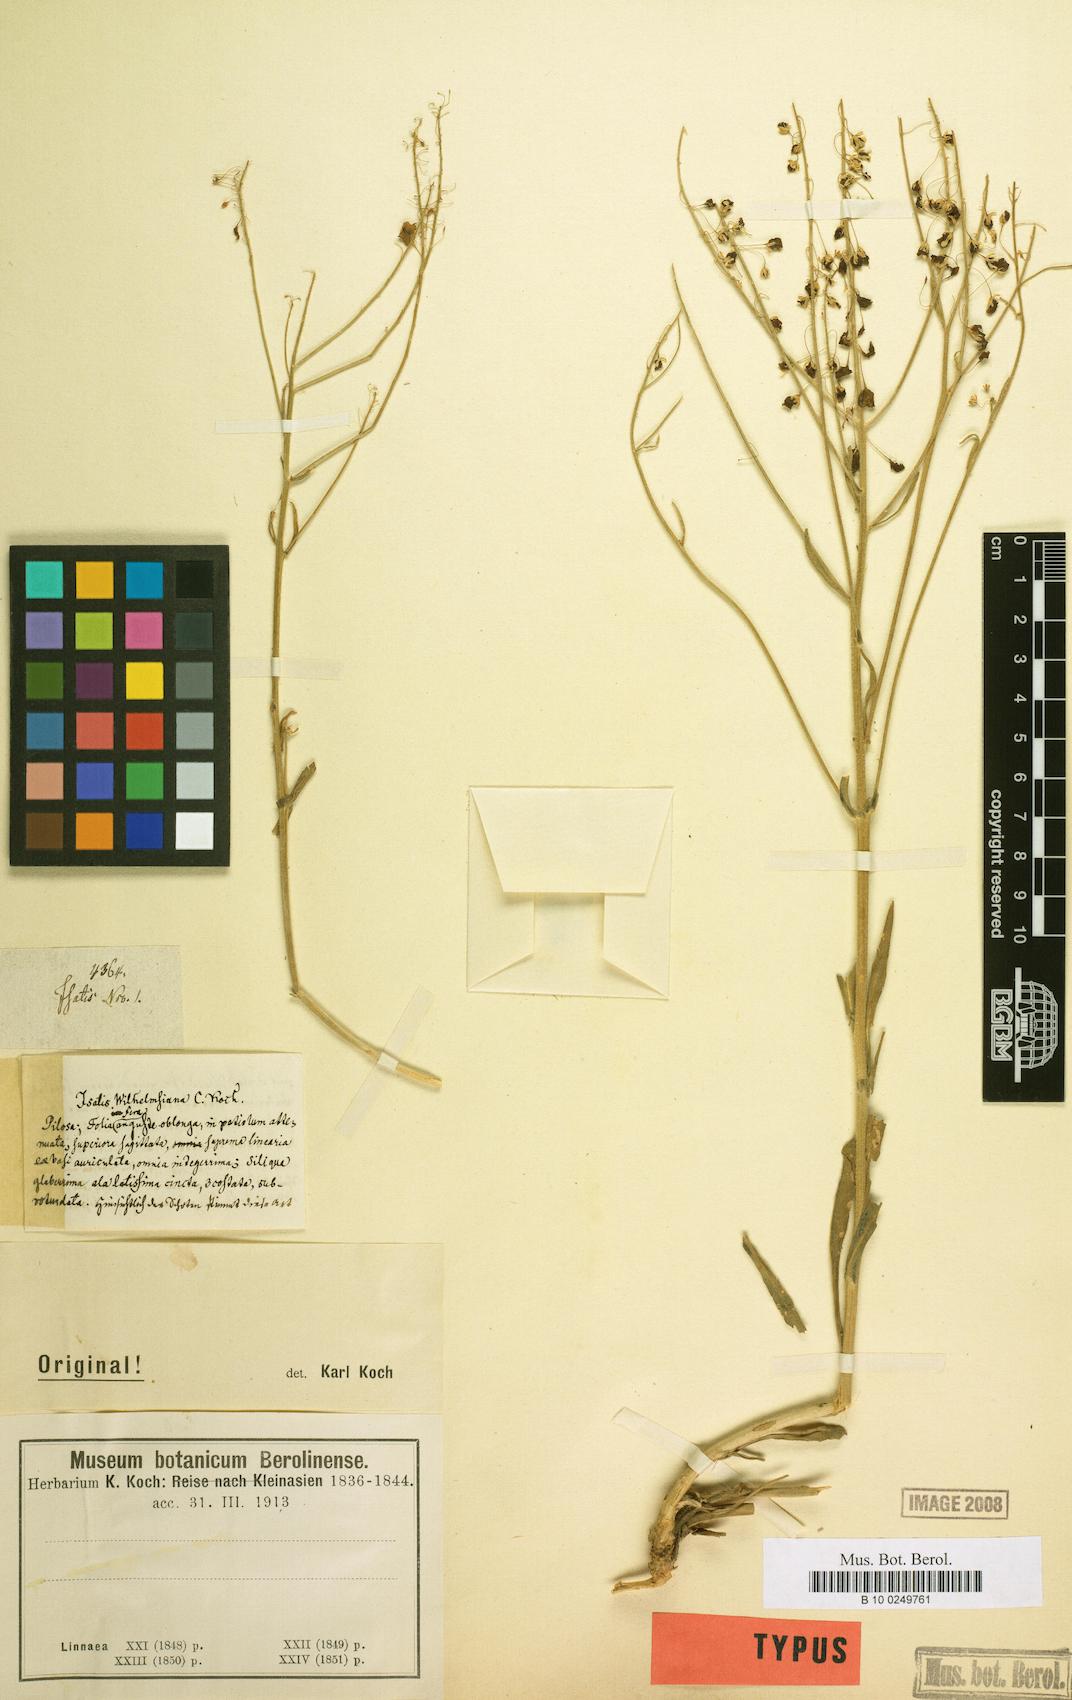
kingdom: Plantae
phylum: Tracheophyta
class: Magnoliopsida
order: Brassicales
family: Brassicaceae
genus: Isatis
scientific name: Isatis
